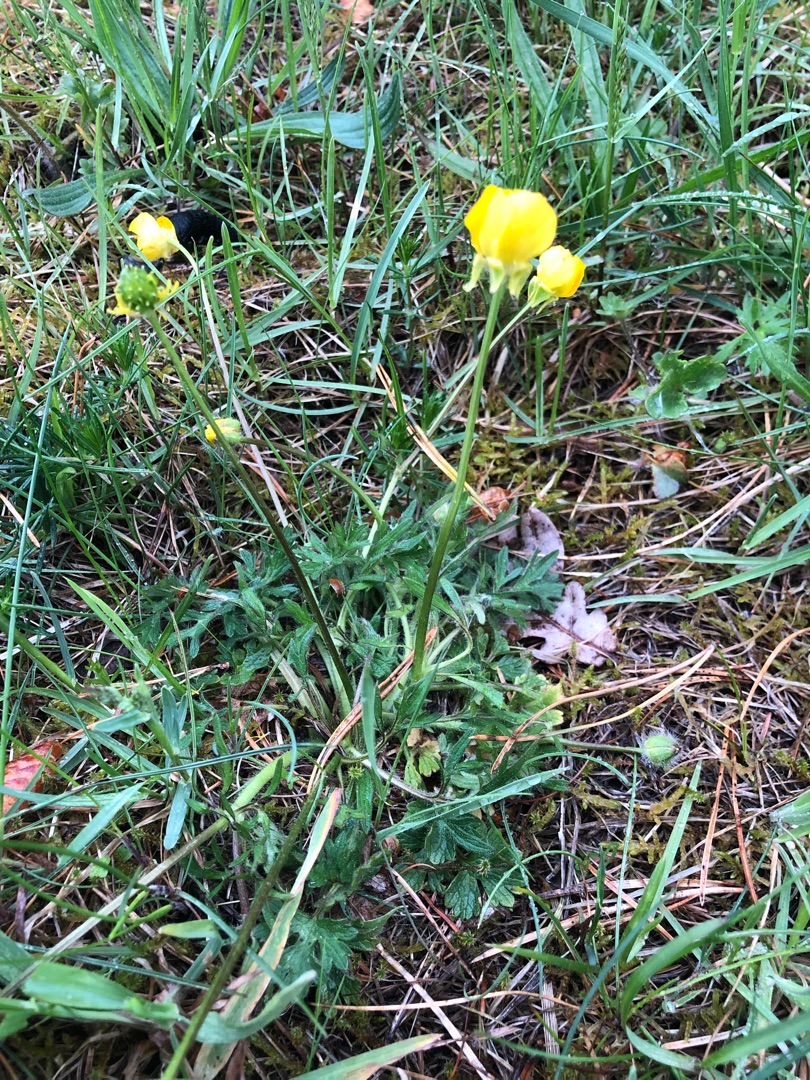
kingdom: Plantae
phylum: Tracheophyta
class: Magnoliopsida
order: Ranunculales
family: Ranunculaceae
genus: Ranunculus
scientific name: Ranunculus bulbosus
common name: Knold-ranunkel
